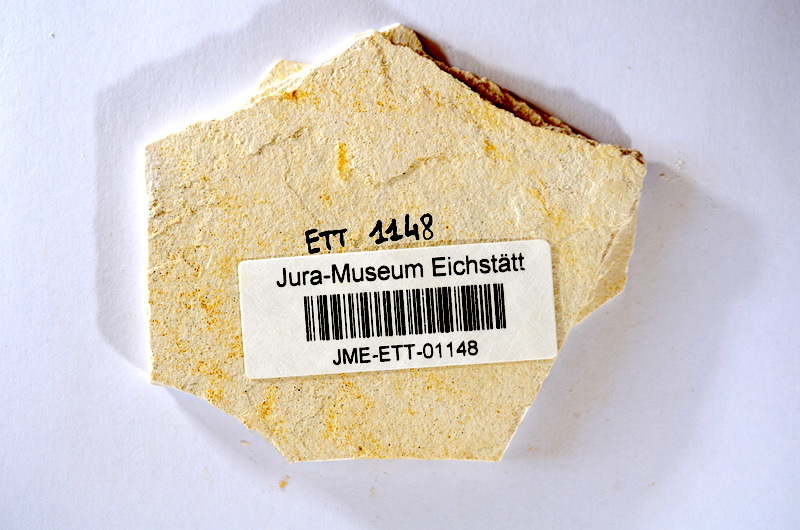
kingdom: Animalia
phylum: Chordata
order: Salmoniformes
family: Orthogonikleithridae
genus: Orthogonikleithrus
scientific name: Orthogonikleithrus hoelli
